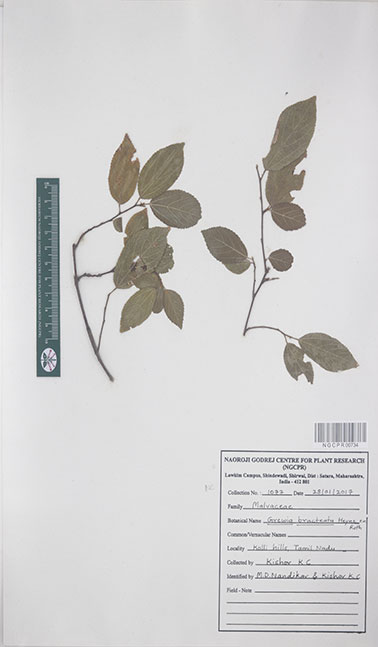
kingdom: Plantae
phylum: Tracheophyta
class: Magnoliopsida
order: Malvales
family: Malvaceae
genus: Grewia
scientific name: Grewia bracteata
